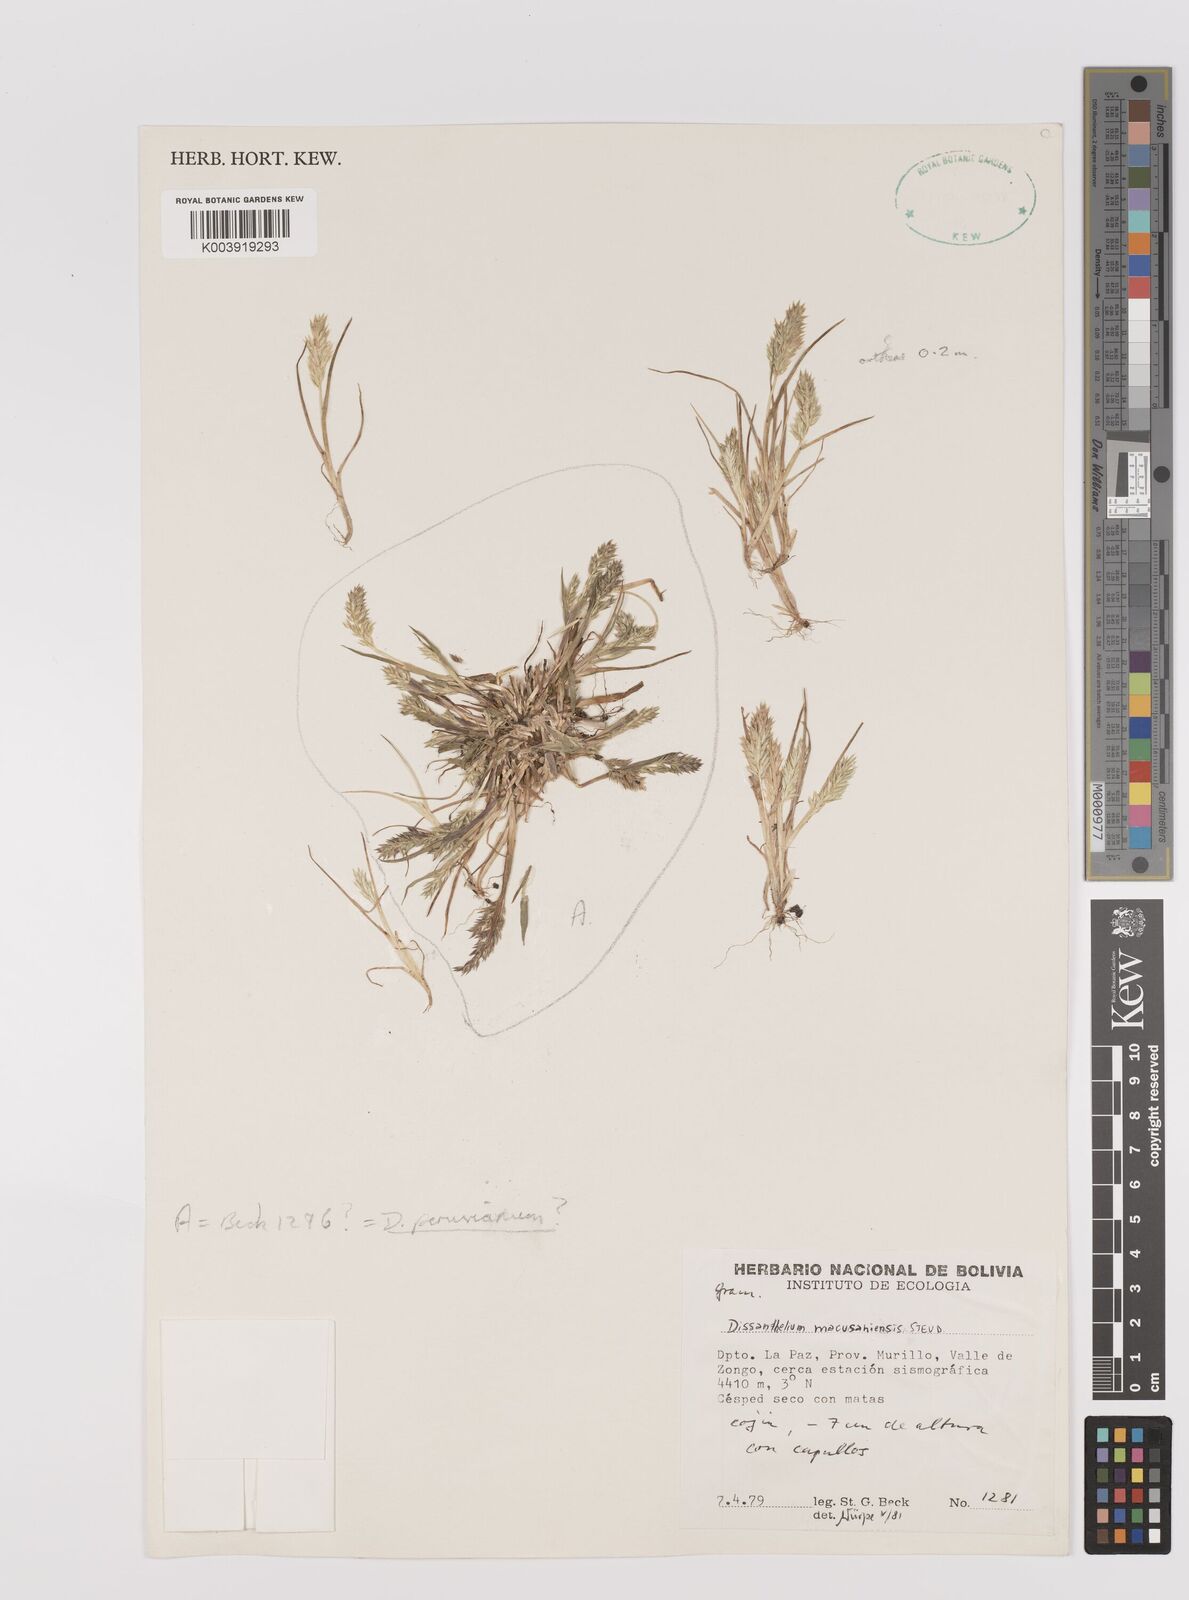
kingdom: Plantae
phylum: Tracheophyta
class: Liliopsida
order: Poales
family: Poaceae
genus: Poa
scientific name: Poa macusaniensis
